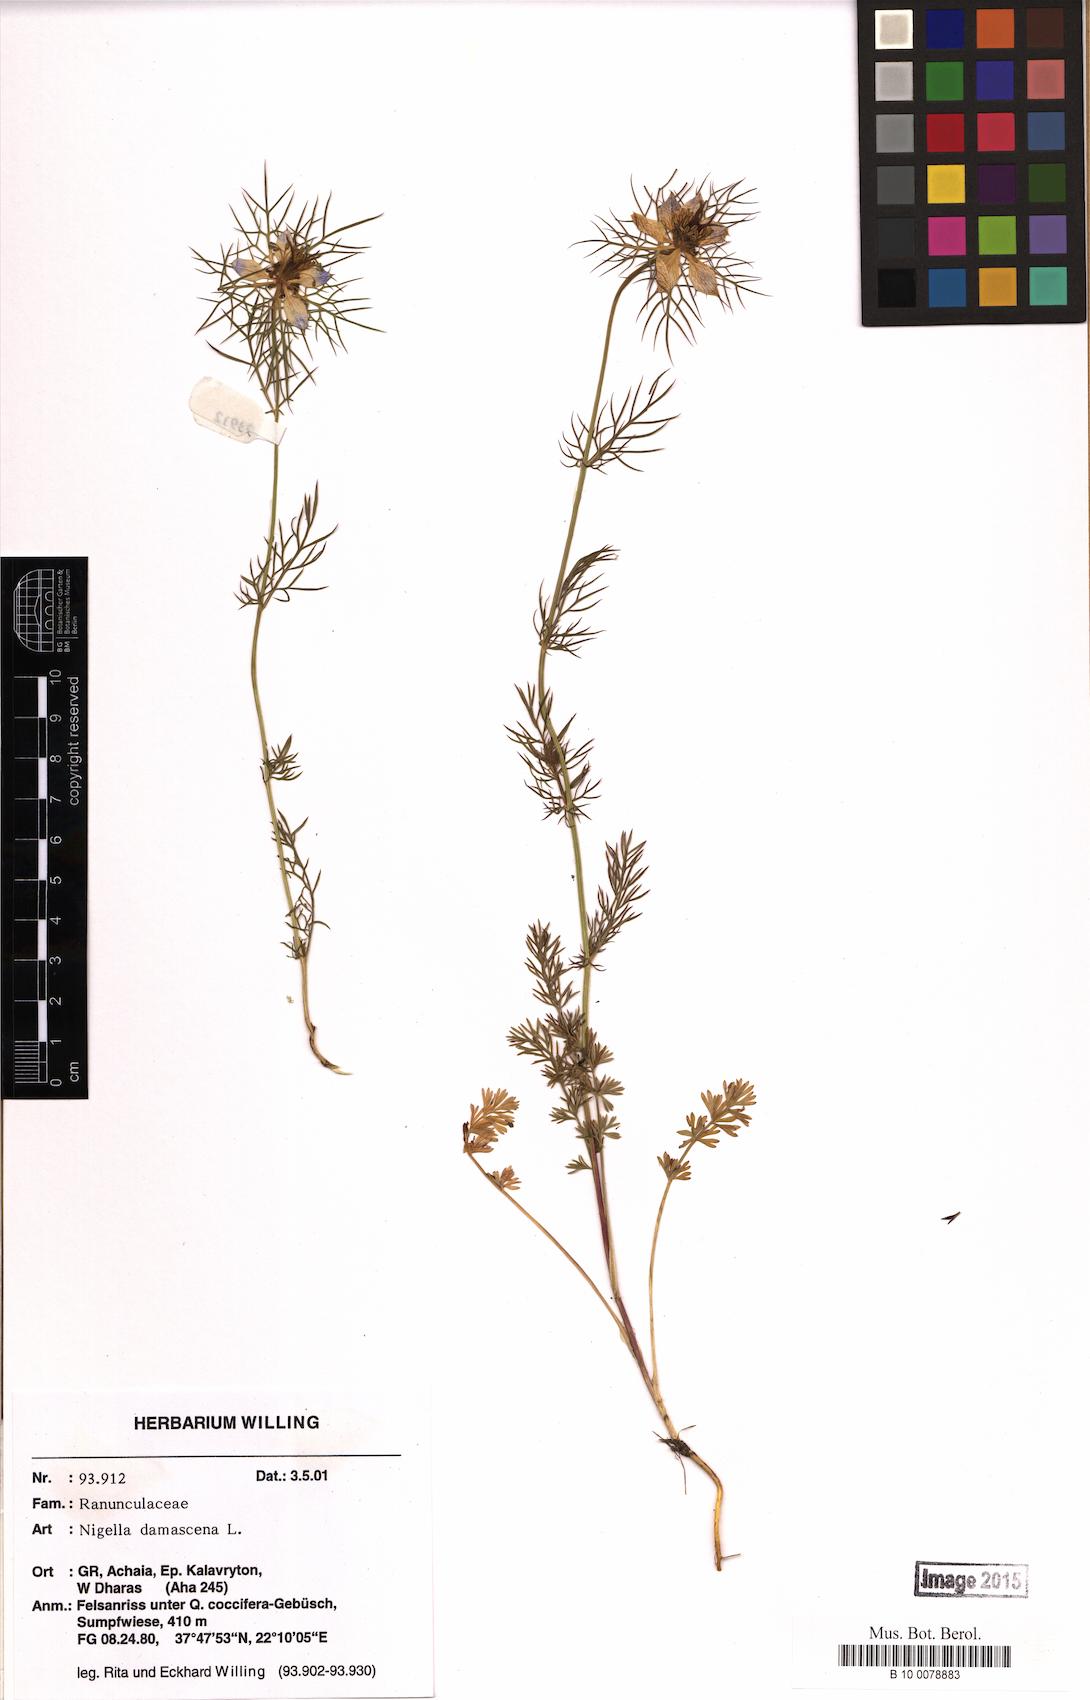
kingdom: Plantae
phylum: Tracheophyta
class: Magnoliopsida
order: Ranunculales
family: Ranunculaceae
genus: Nigella
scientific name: Nigella damascena
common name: Love-in-a-mist
